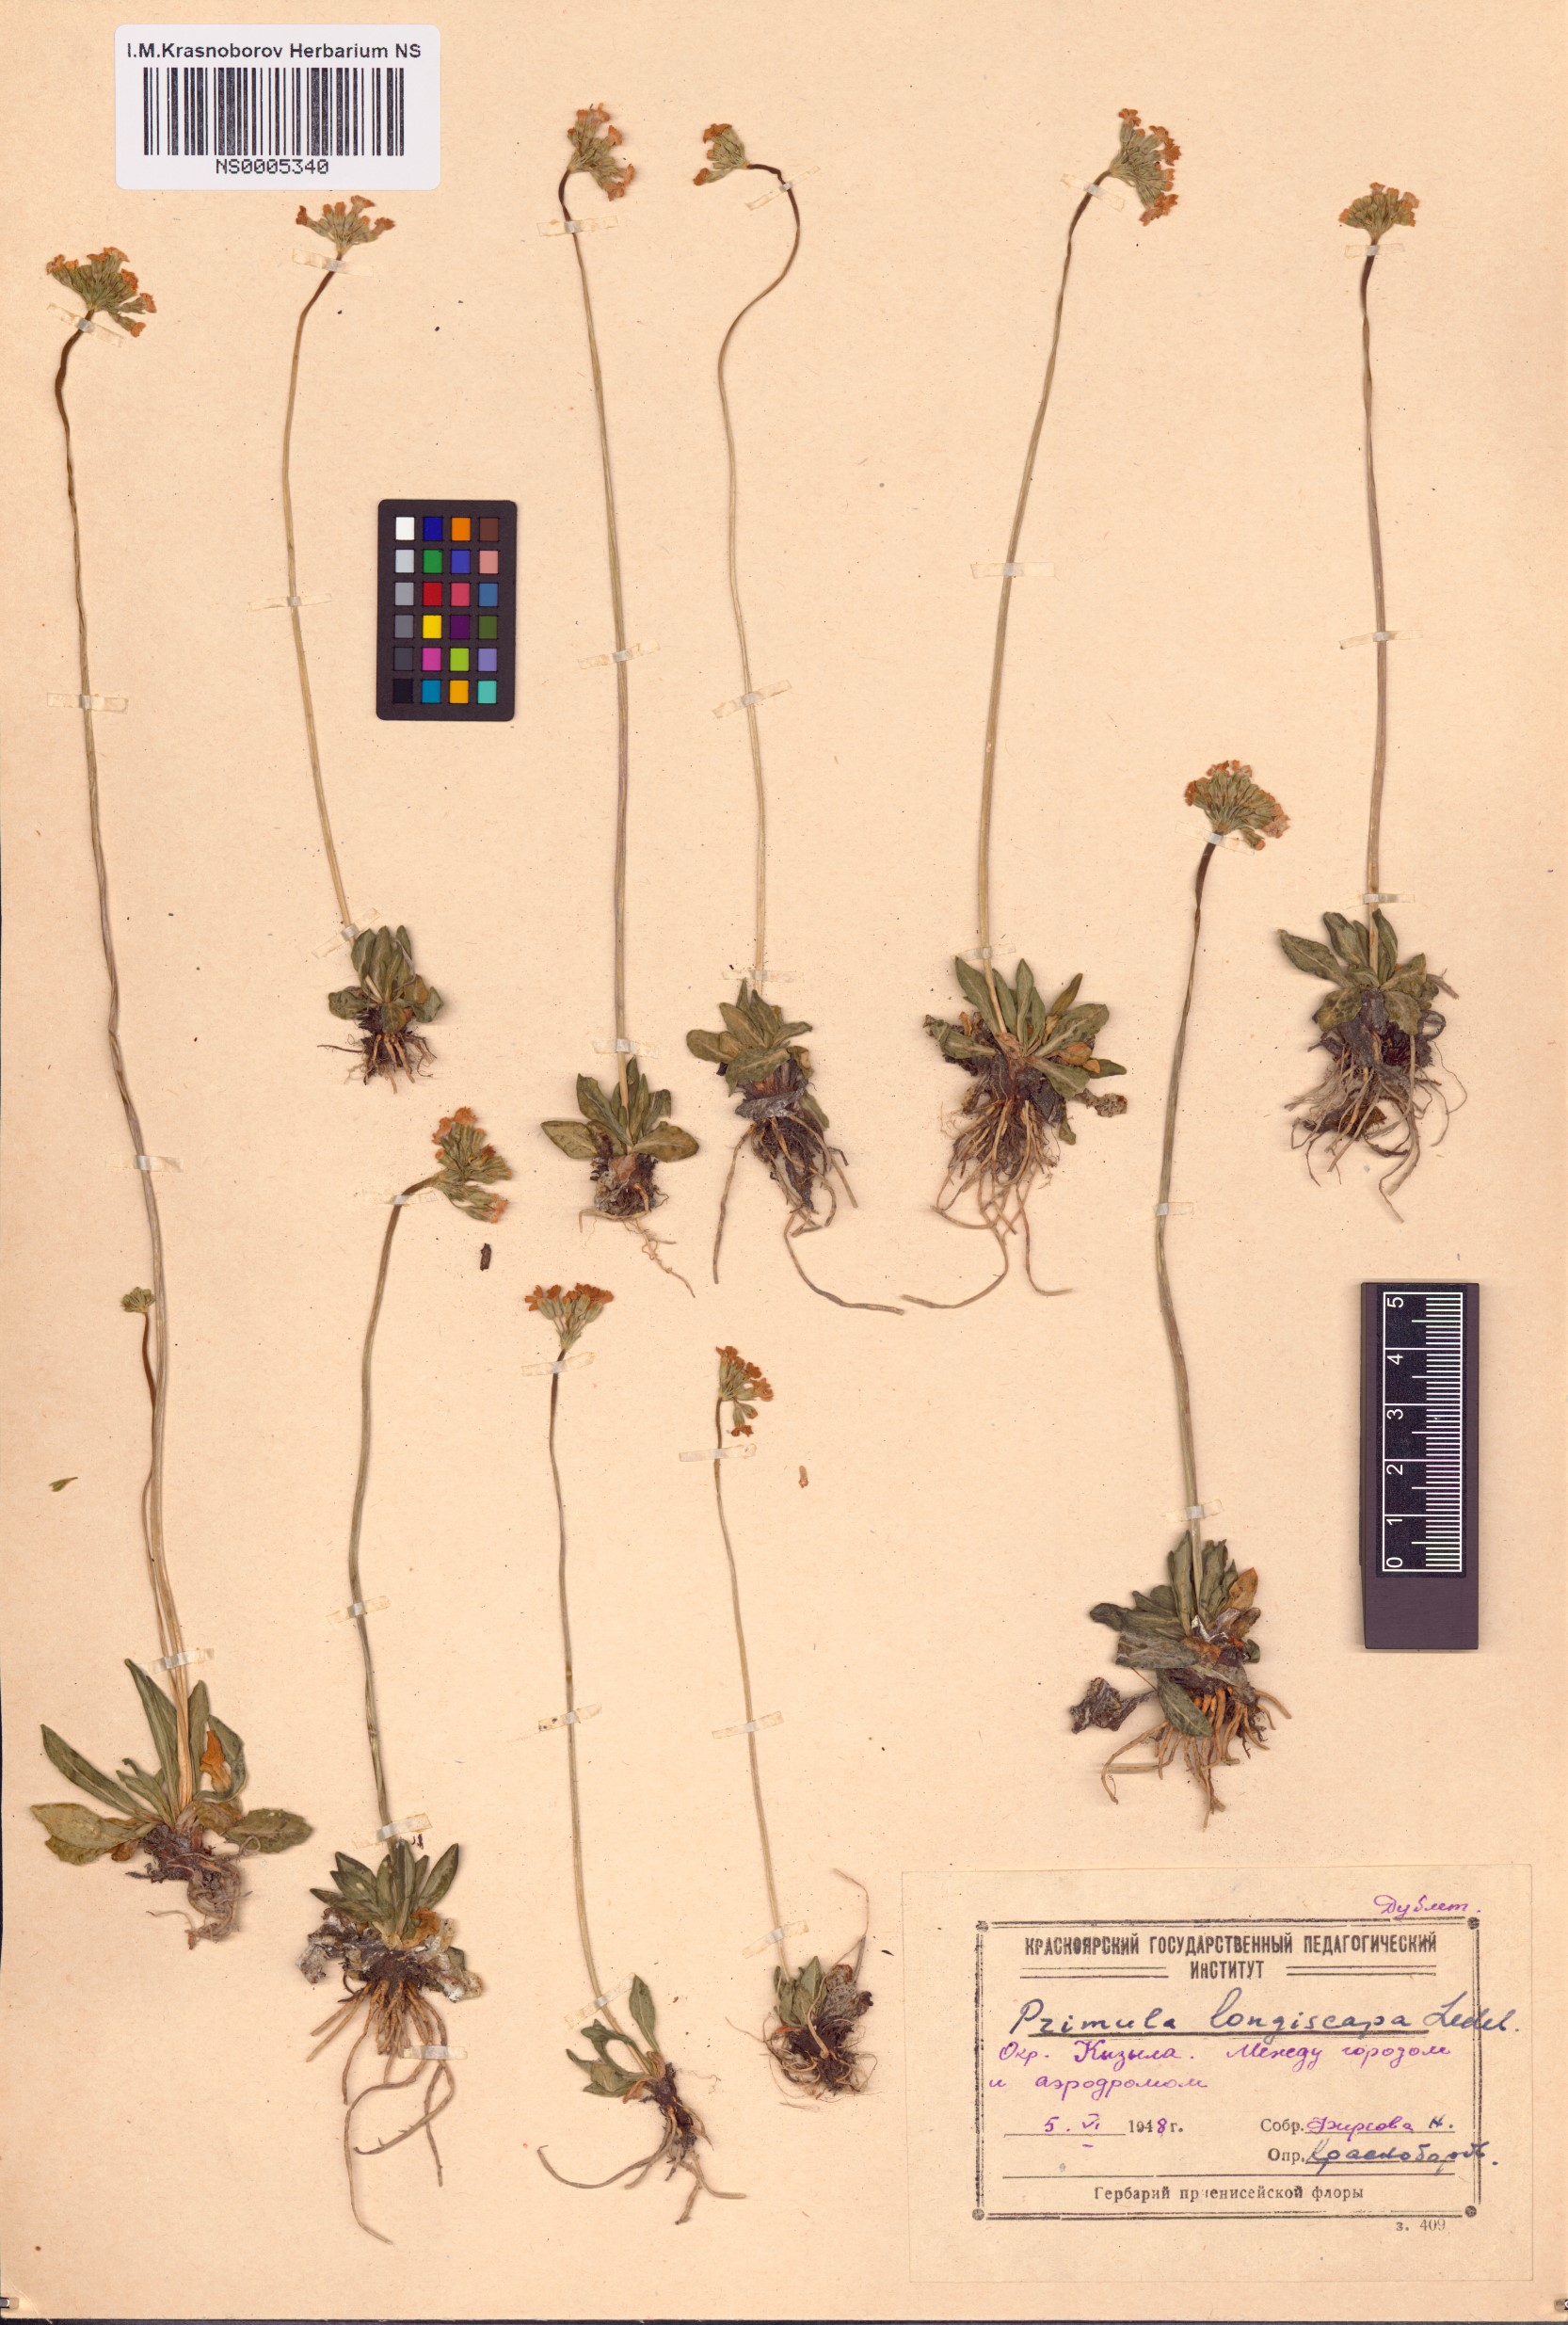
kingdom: Plantae
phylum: Tracheophyta
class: Magnoliopsida
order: Ericales
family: Primulaceae
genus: Primula
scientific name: Primula longiscapa
